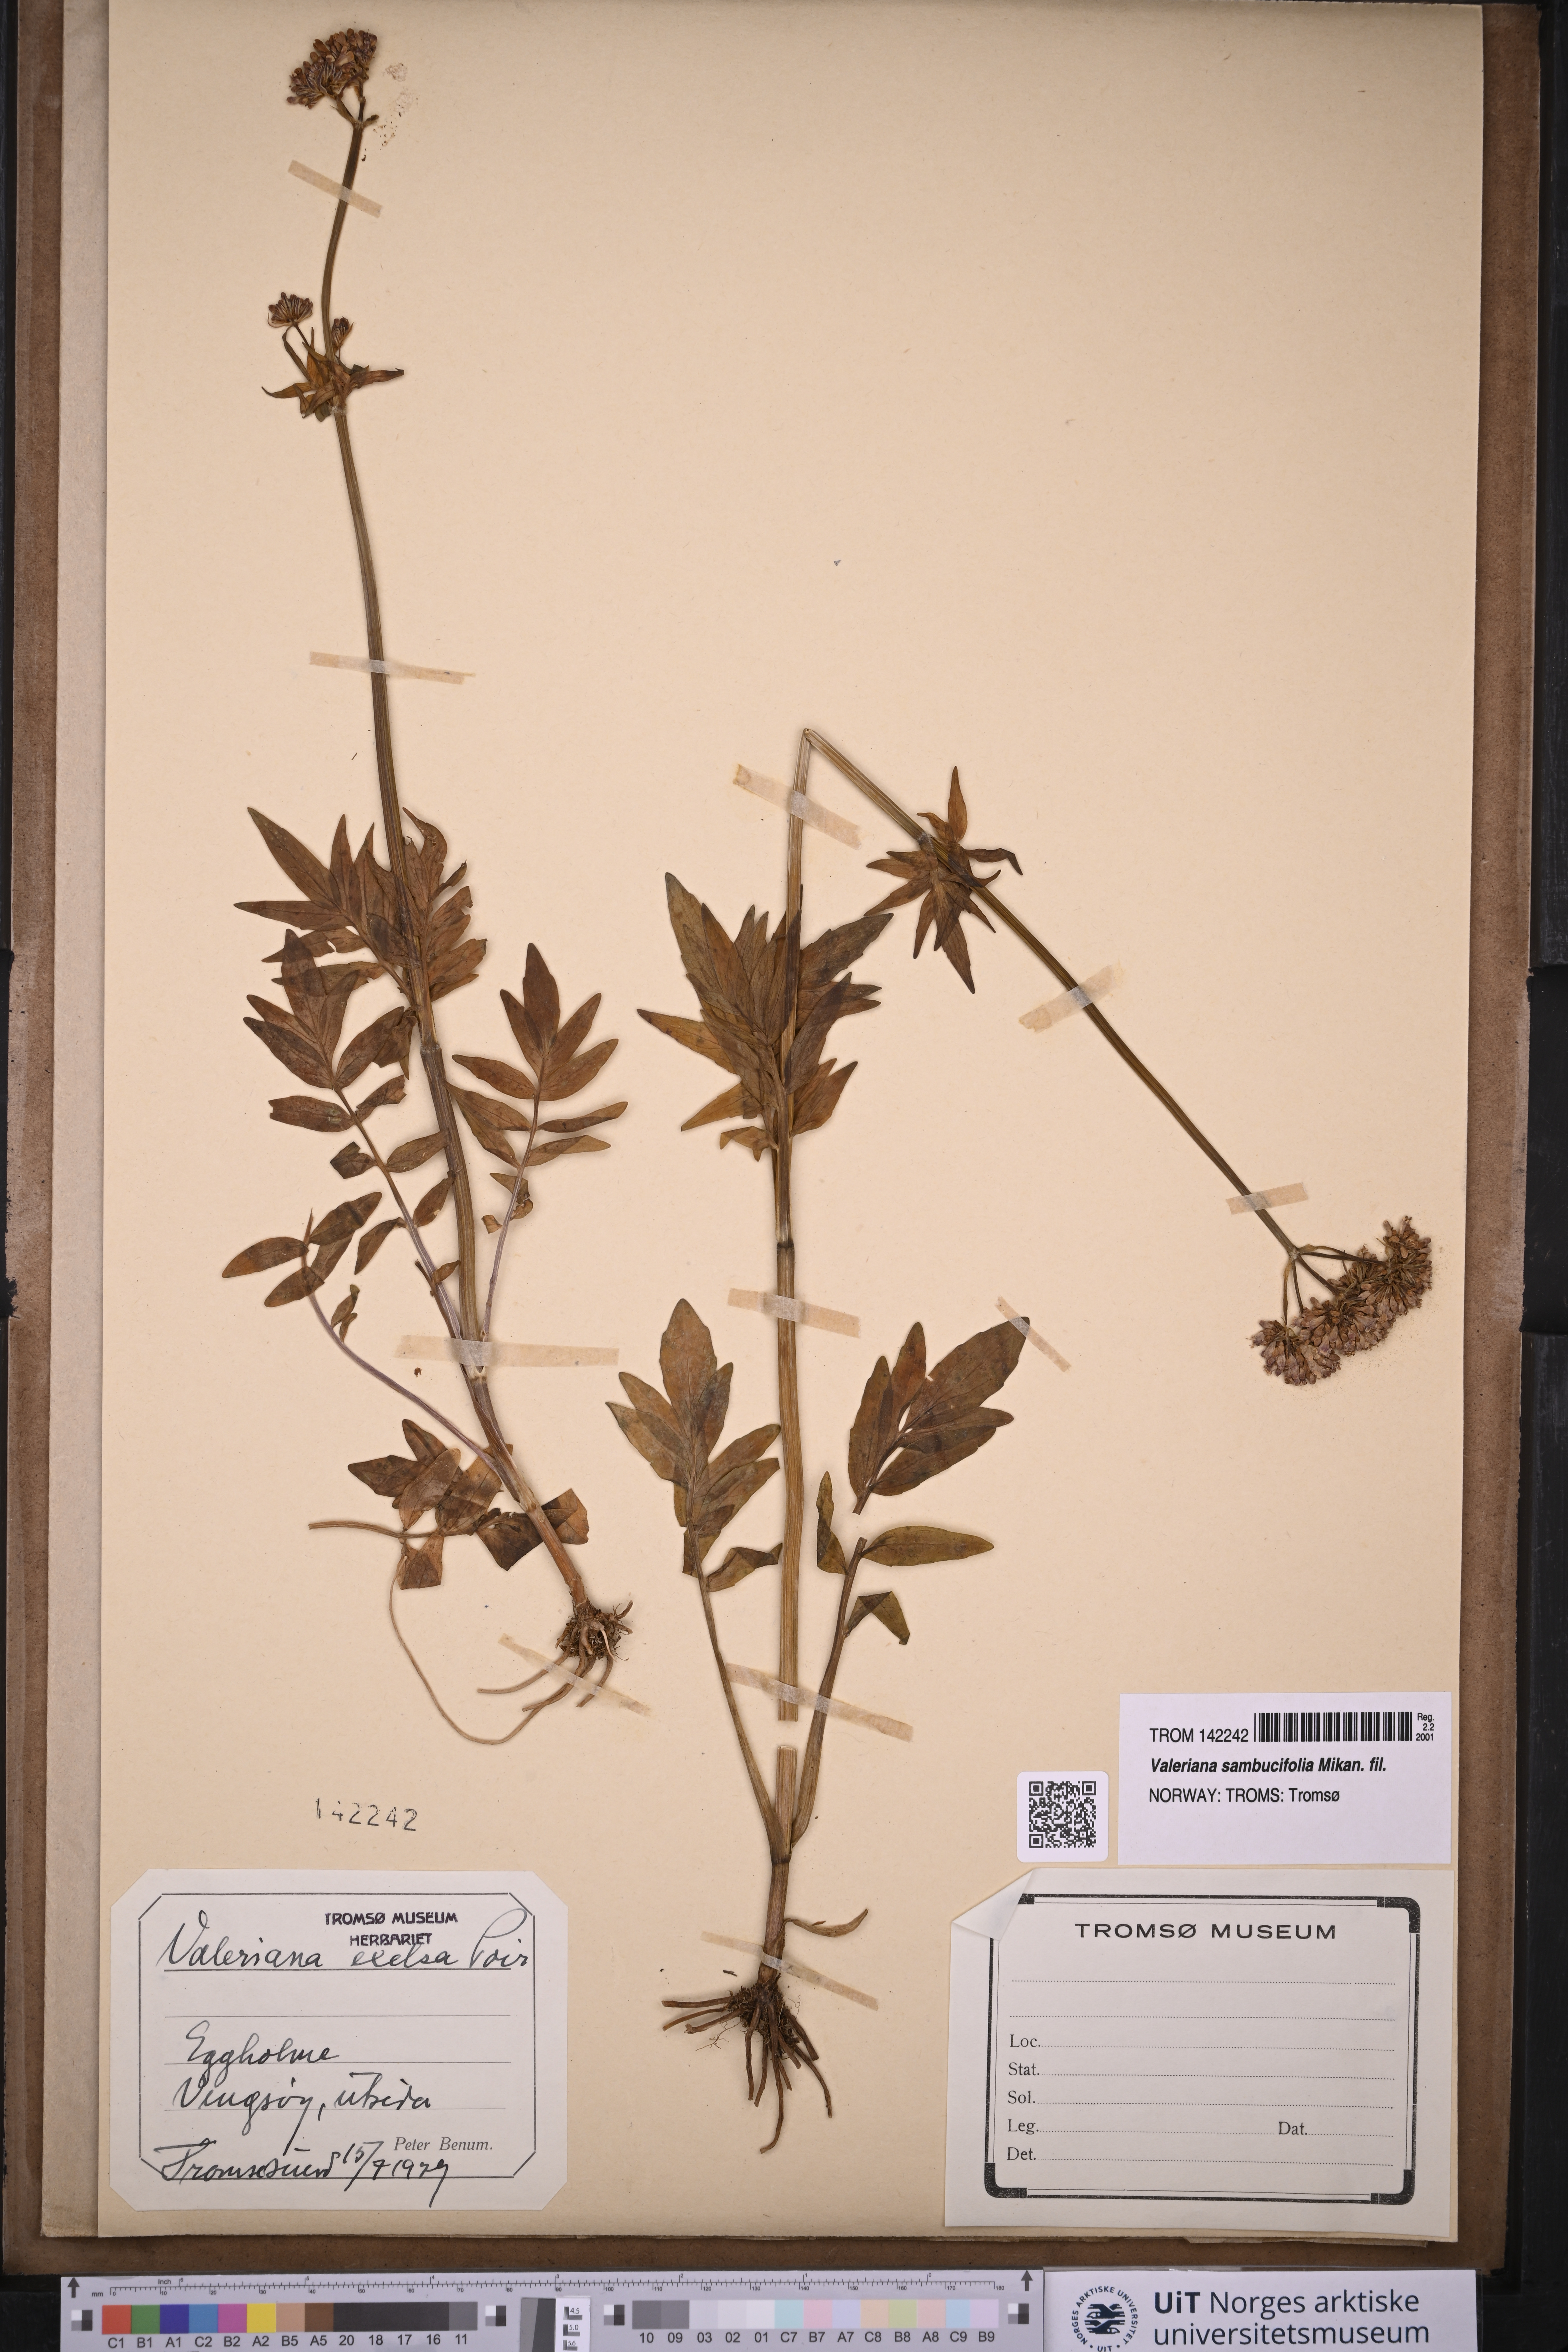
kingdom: Plantae
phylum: Tracheophyta
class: Magnoliopsida
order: Dipsacales
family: Caprifoliaceae
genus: Valeriana
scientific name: Valeriana sambucifolia
